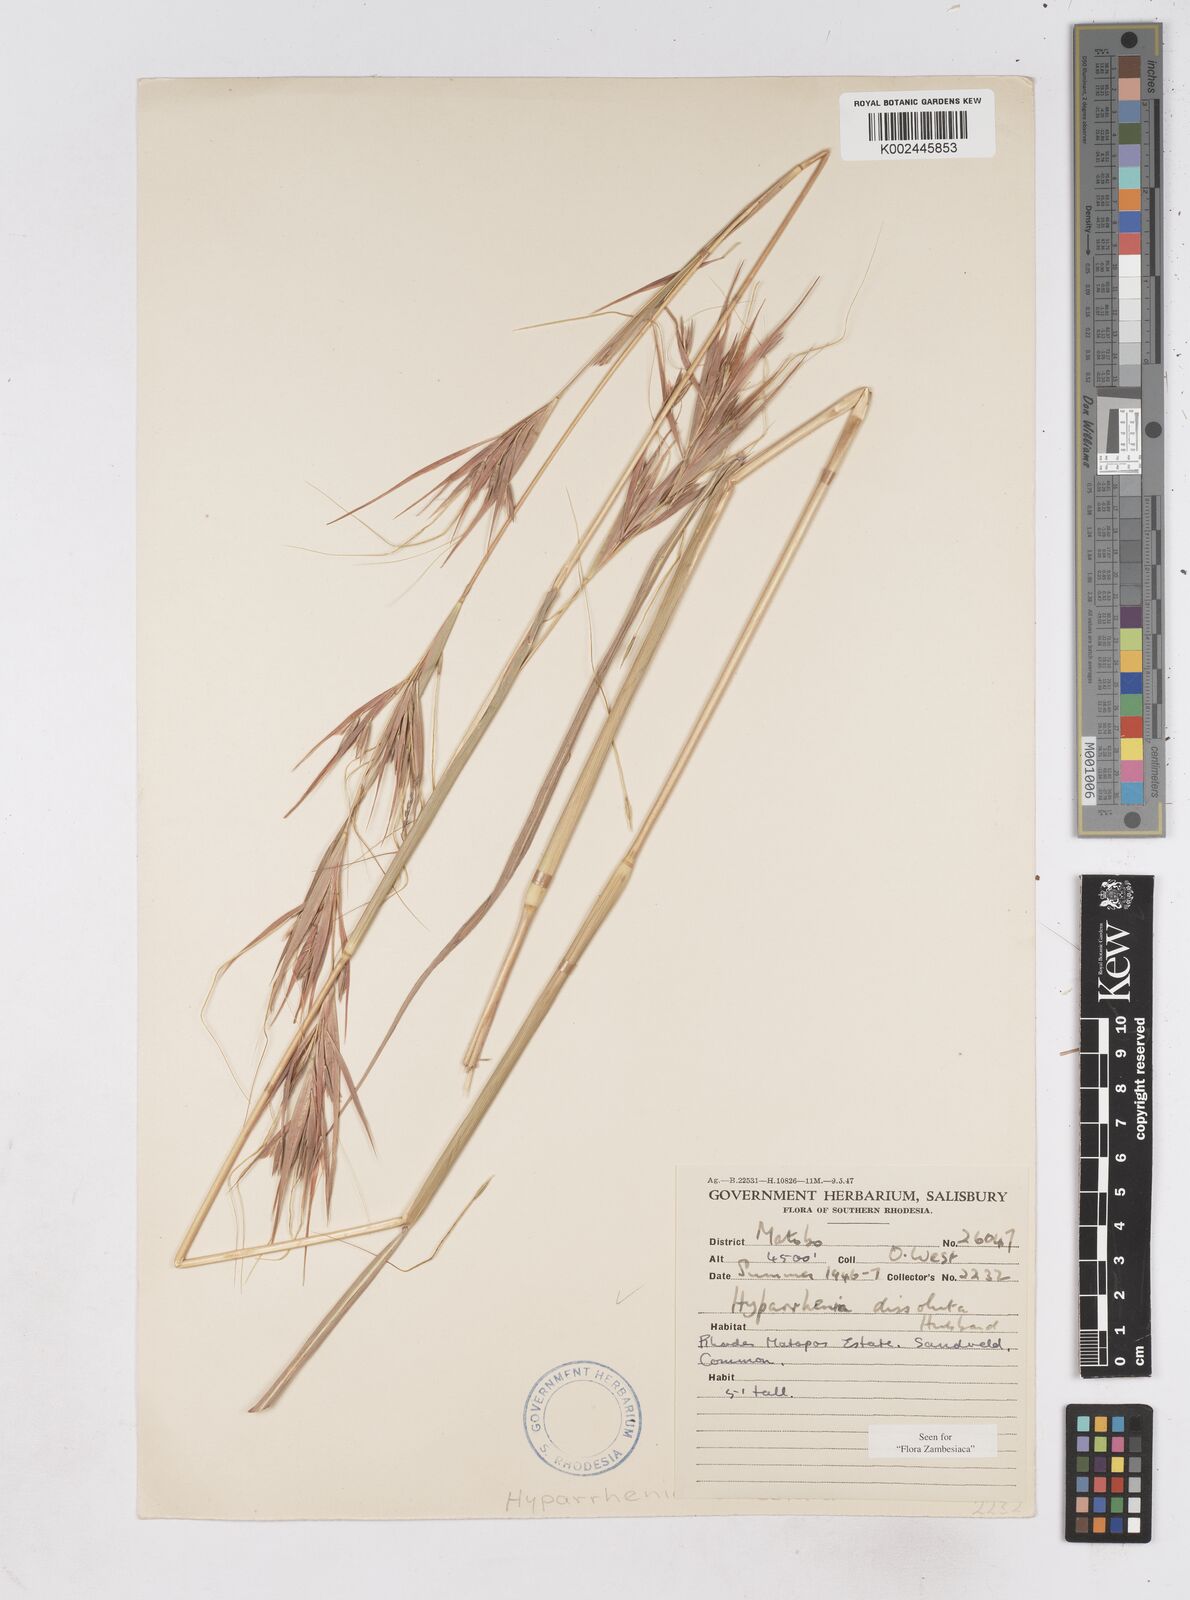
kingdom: Plantae
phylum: Tracheophyta
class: Liliopsida
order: Poales
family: Poaceae
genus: Hyperthelia
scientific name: Hyperthelia dissoluta
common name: Yellow thatching grass
